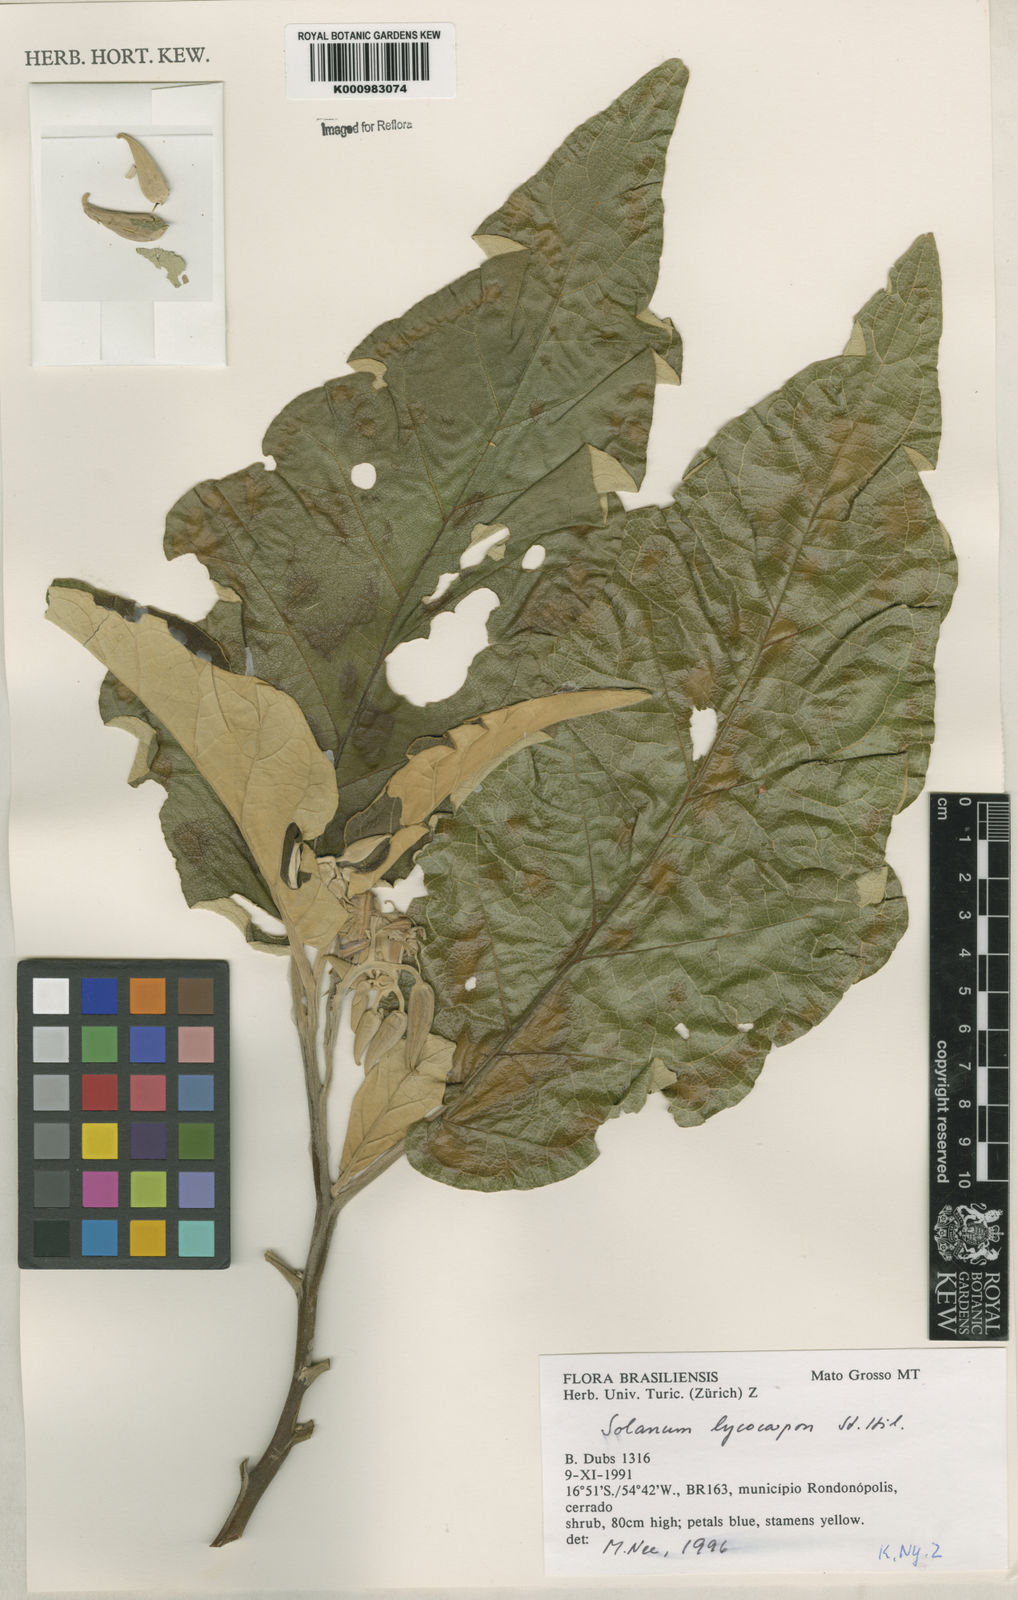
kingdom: Plantae
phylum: Tracheophyta
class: Magnoliopsida
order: Solanales
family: Solanaceae
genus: Solanum
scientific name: Solanum lycocarpum
